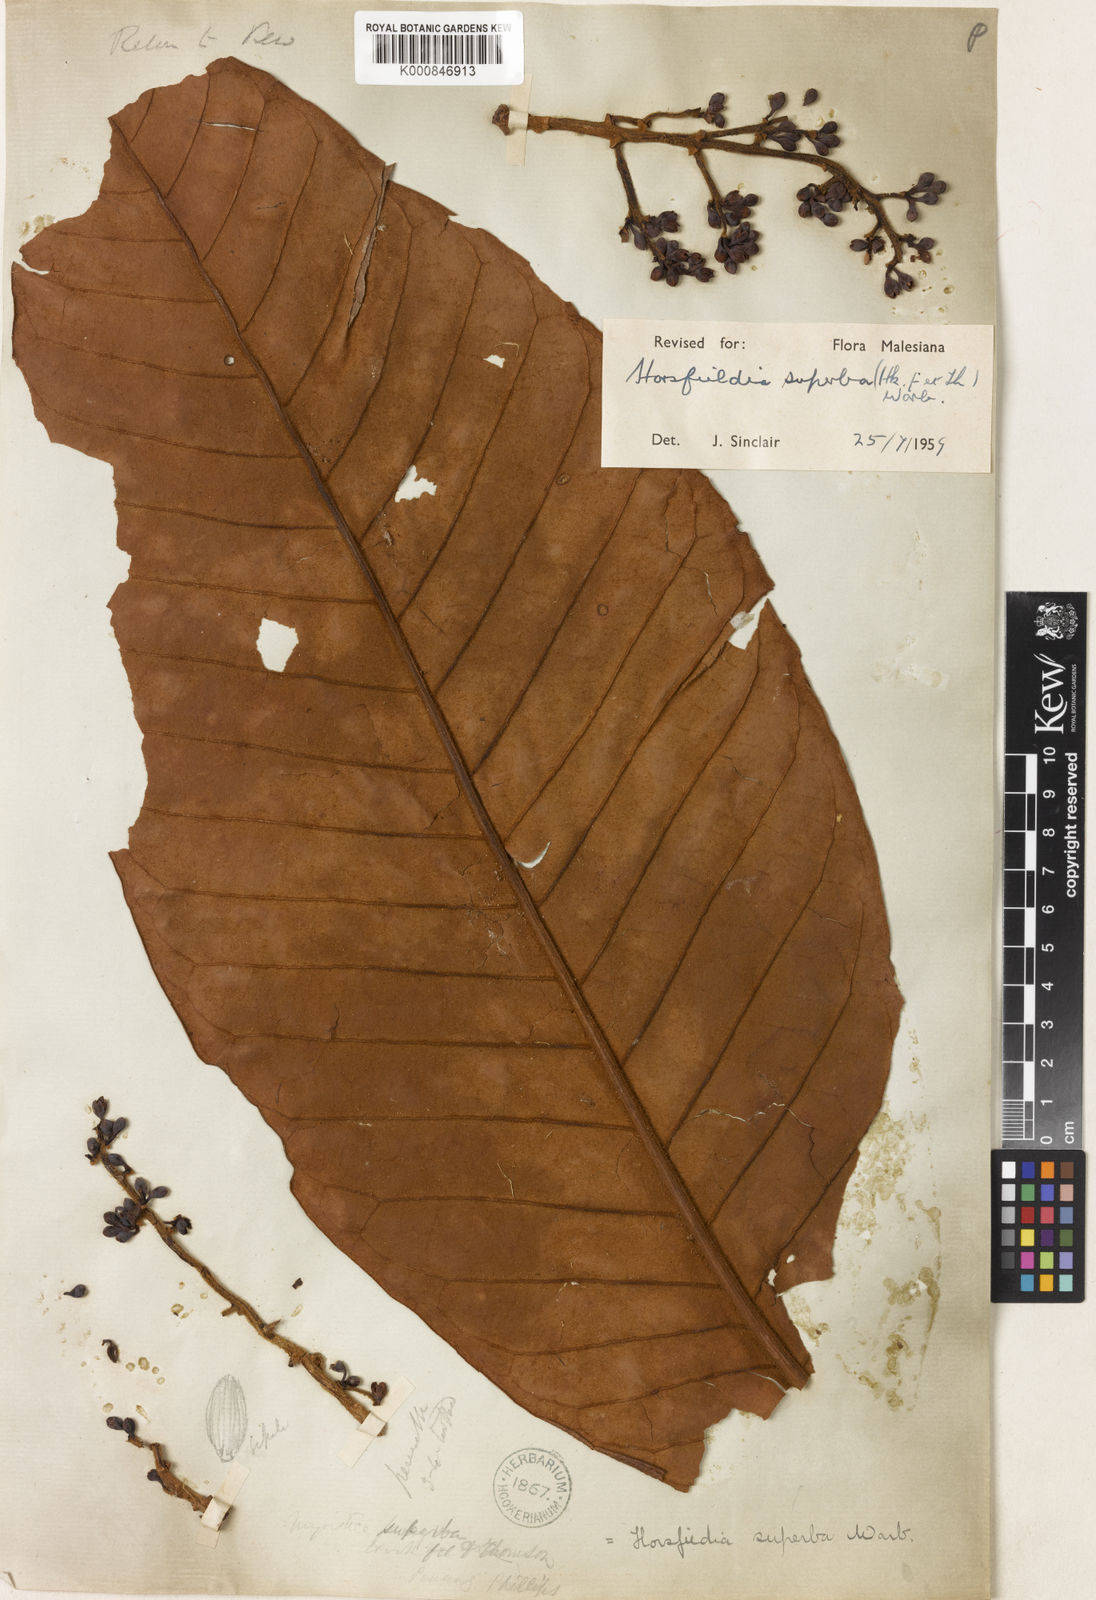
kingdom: Plantae
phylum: Tracheophyta
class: Magnoliopsida
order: Magnoliales
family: Myristicaceae
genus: Horsfieldia
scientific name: Horsfieldia superba
